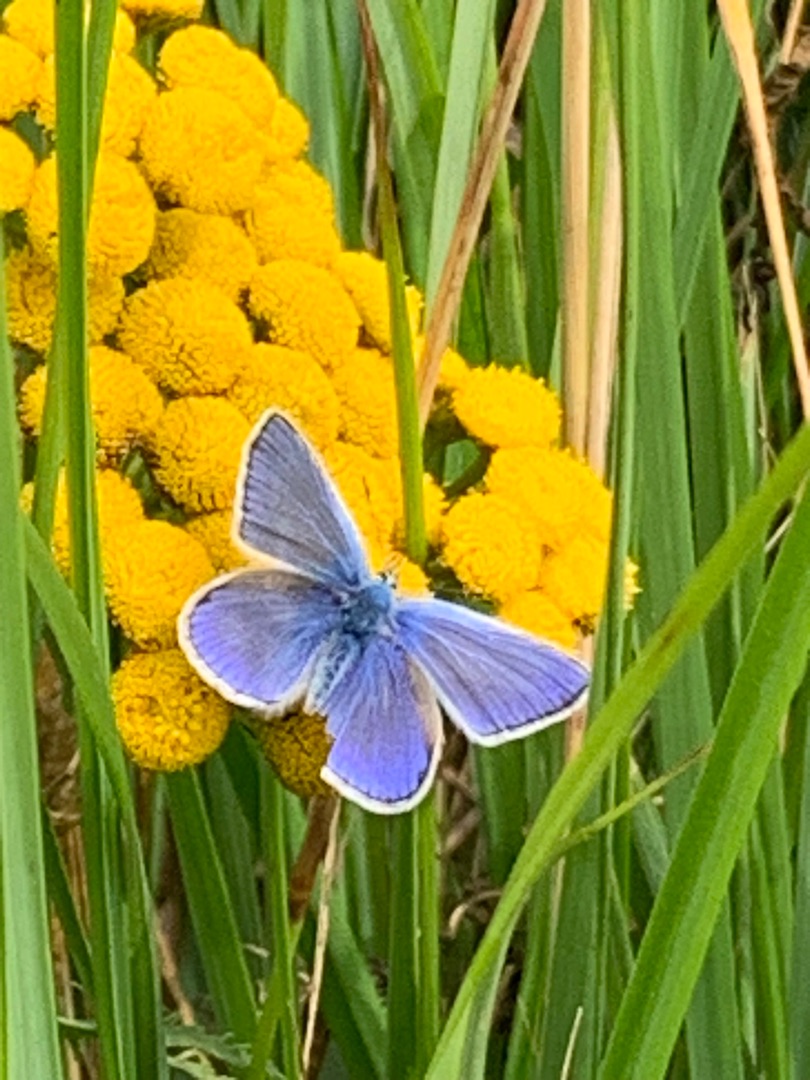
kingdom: Animalia
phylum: Arthropoda
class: Insecta
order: Lepidoptera
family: Lycaenidae
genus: Polyommatus
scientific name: Polyommatus icarus
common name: Almindelig blåfugl
